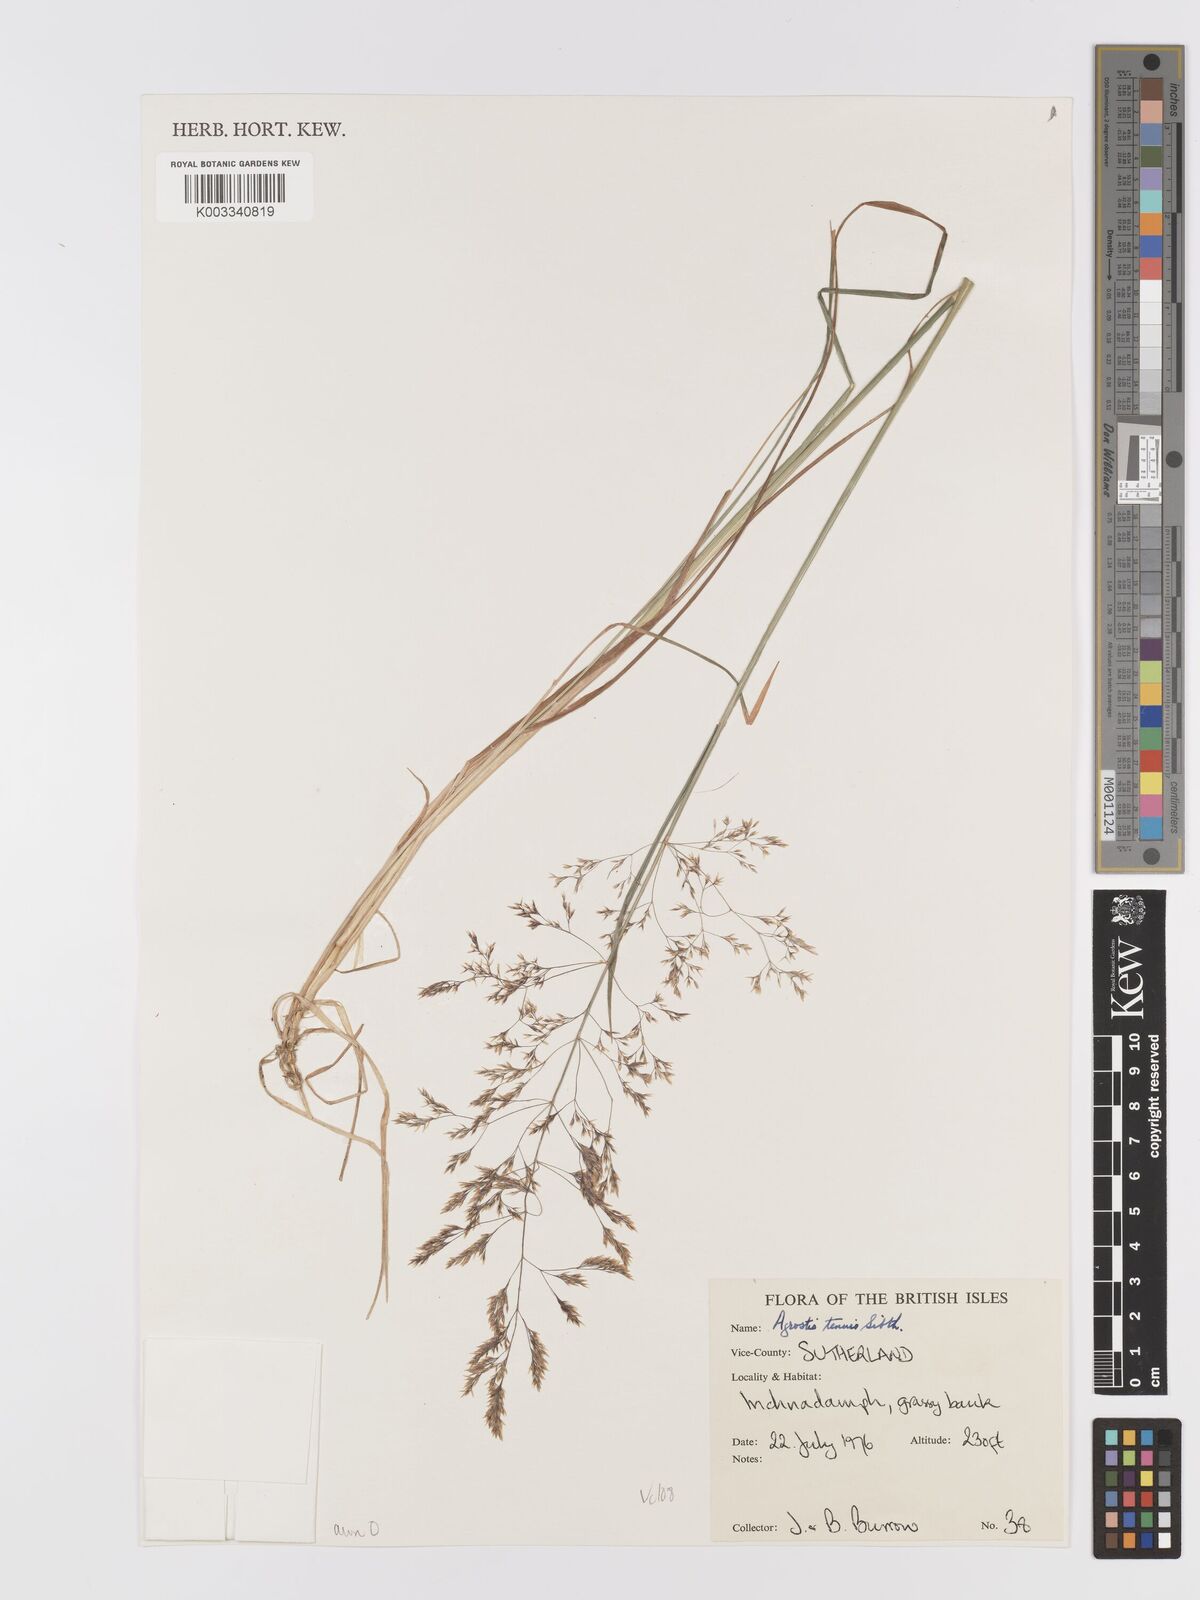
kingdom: Plantae
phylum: Tracheophyta
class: Liliopsida
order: Poales
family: Poaceae
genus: Agrostis
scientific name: Agrostis capillaris
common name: Colonial bentgrass
